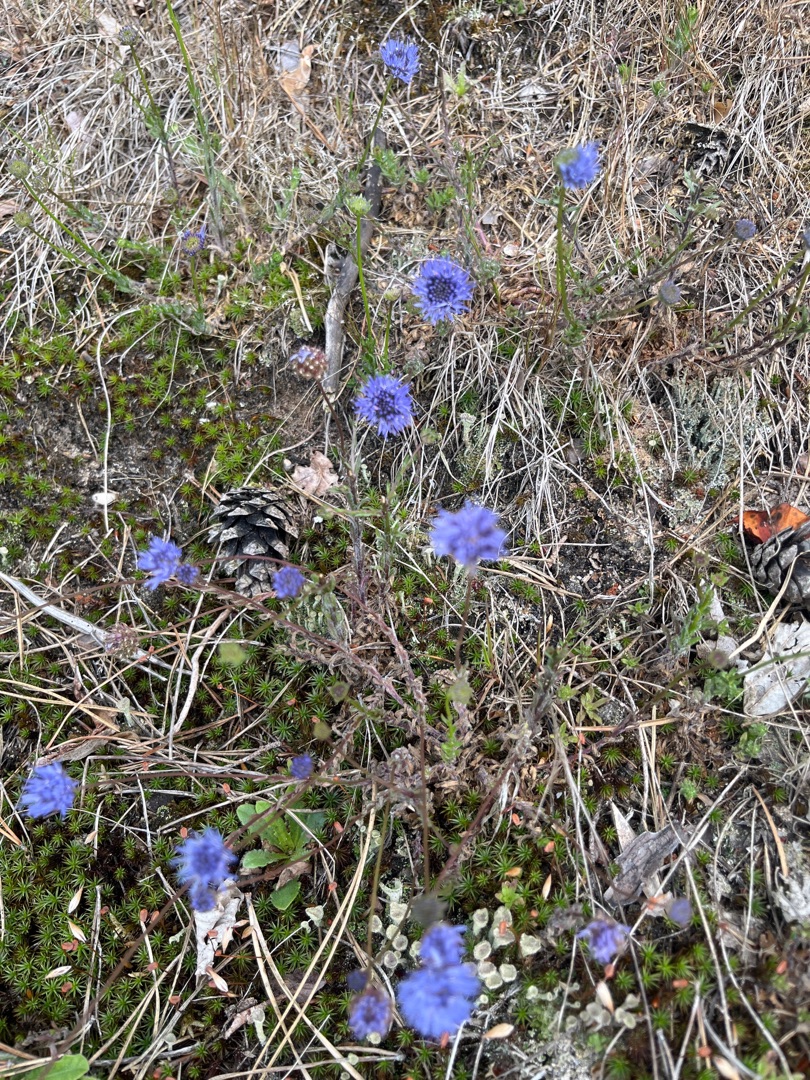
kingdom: Plantae
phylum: Tracheophyta
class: Magnoliopsida
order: Asterales
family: Campanulaceae
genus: Jasione
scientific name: Jasione montana
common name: Blåmunke
